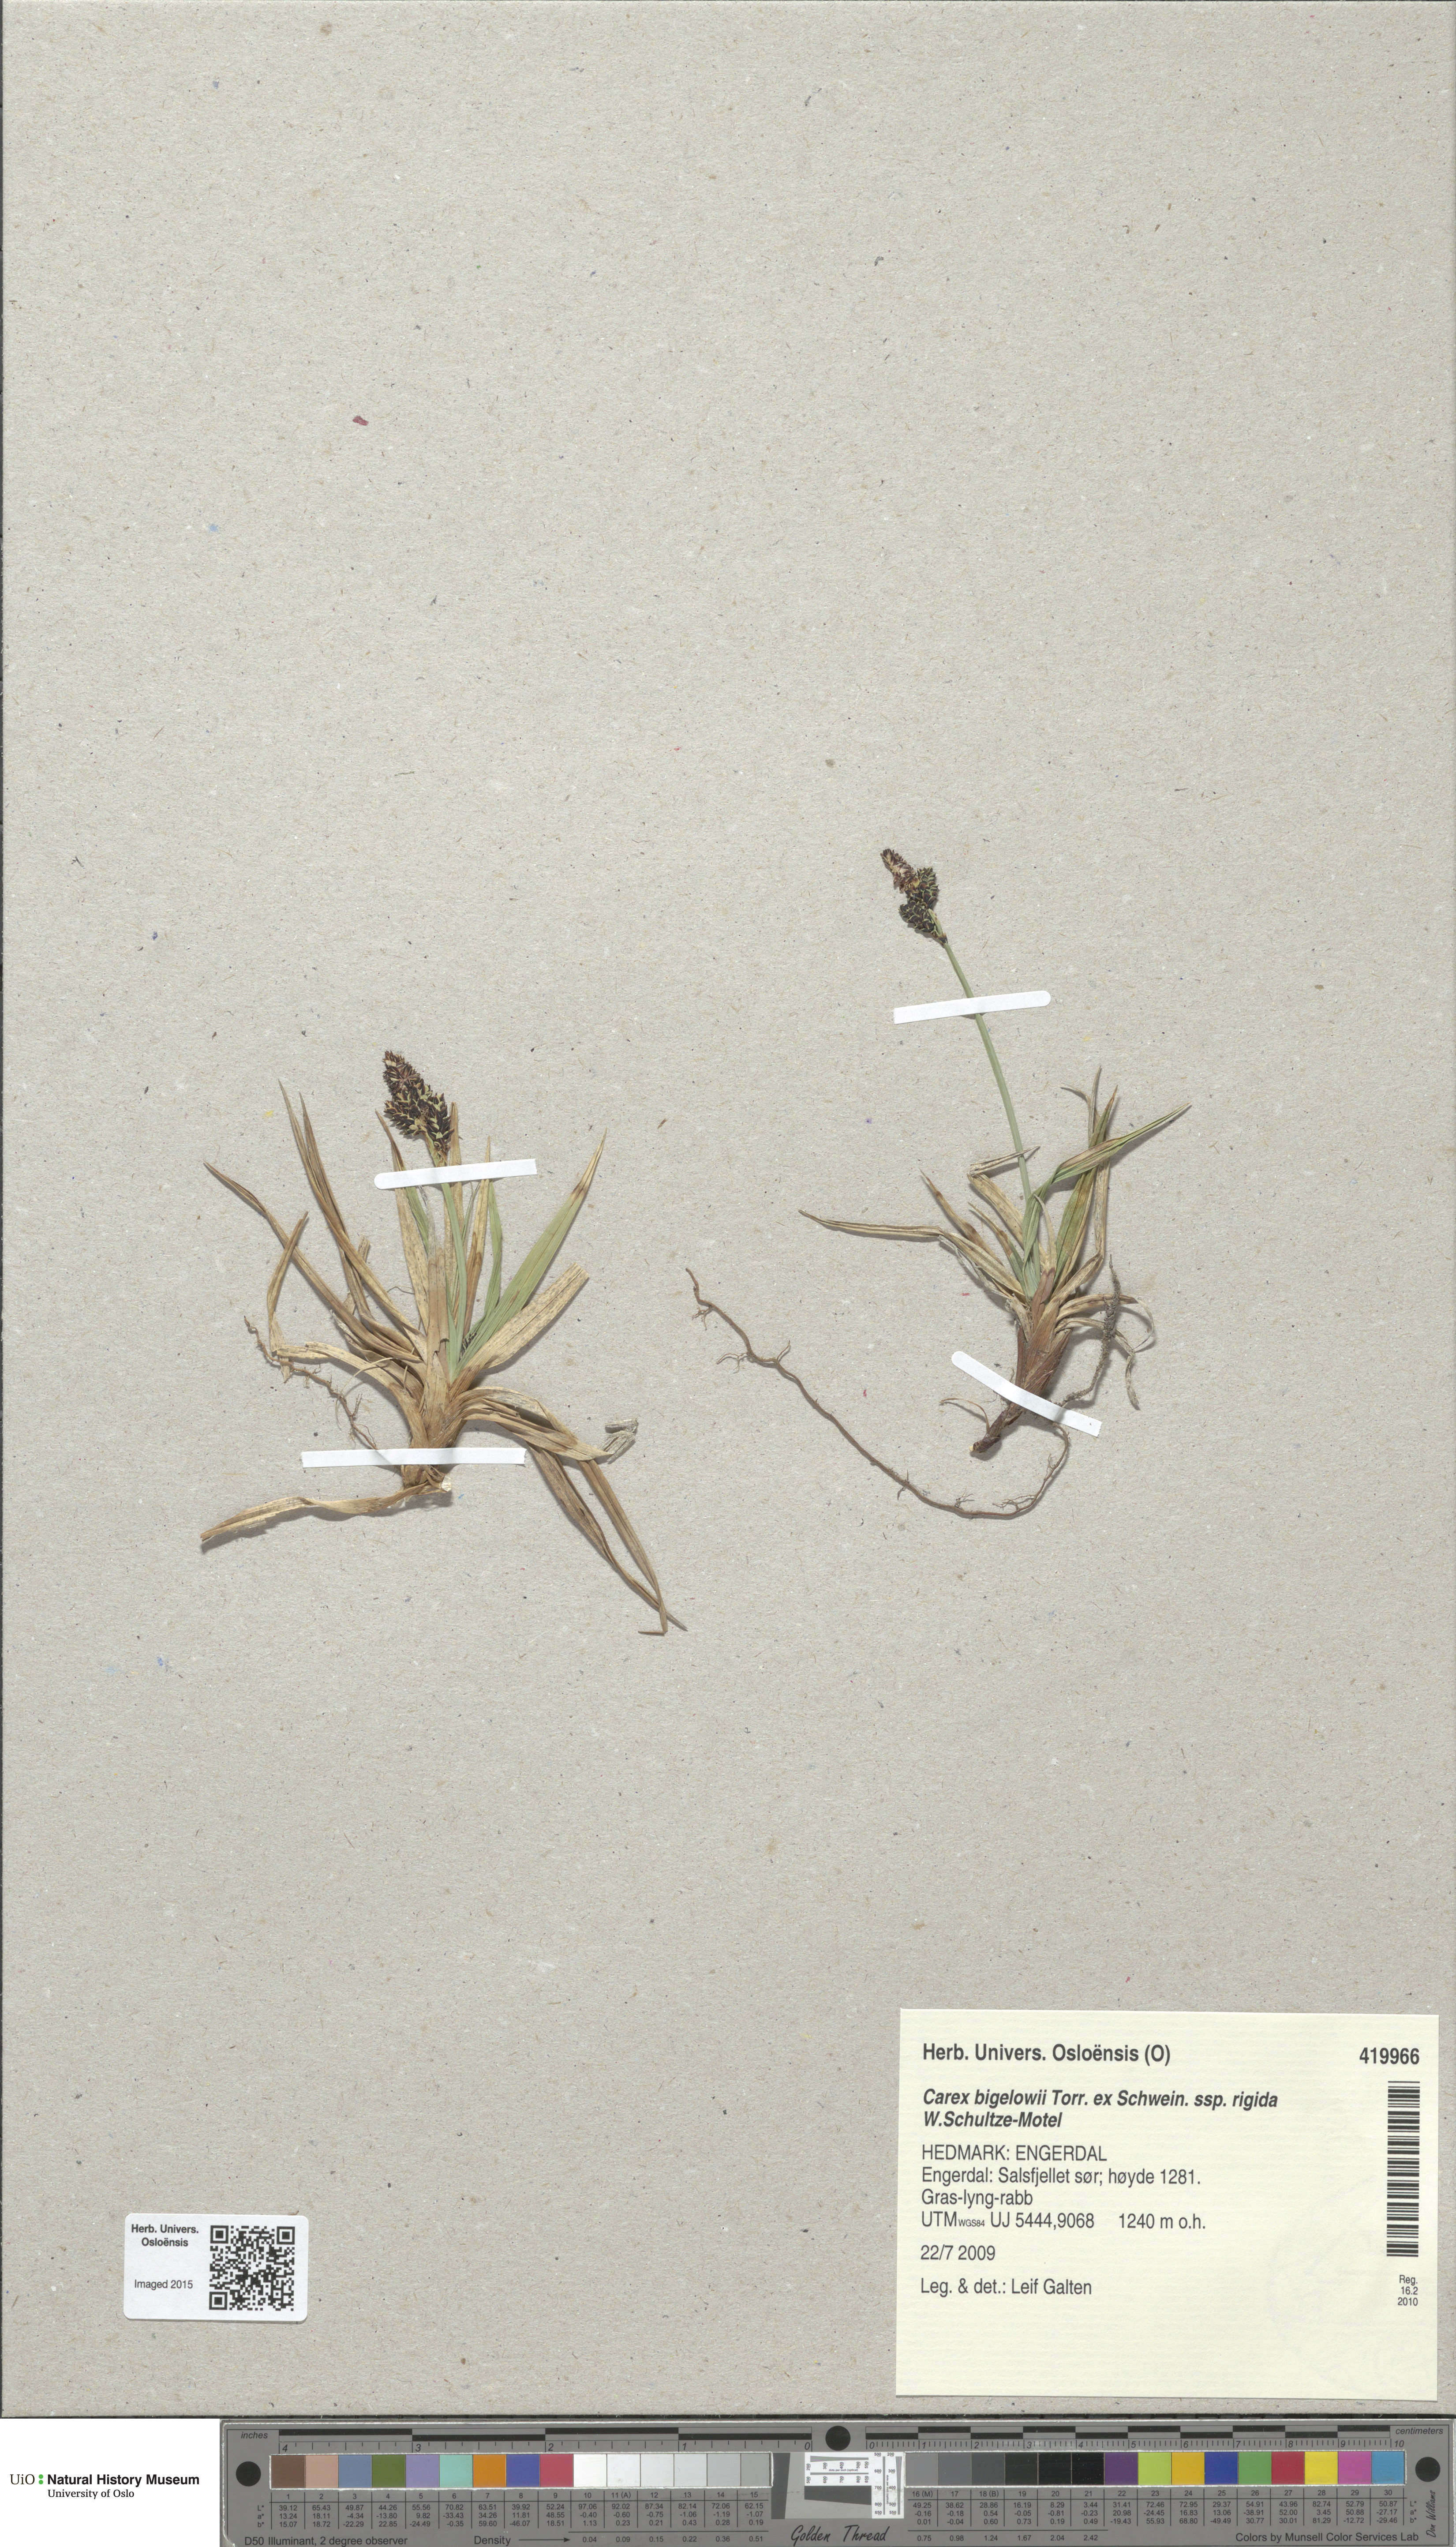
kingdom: Plantae
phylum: Tracheophyta
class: Liliopsida
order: Poales
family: Cyperaceae
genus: Carex
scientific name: Carex dacica
